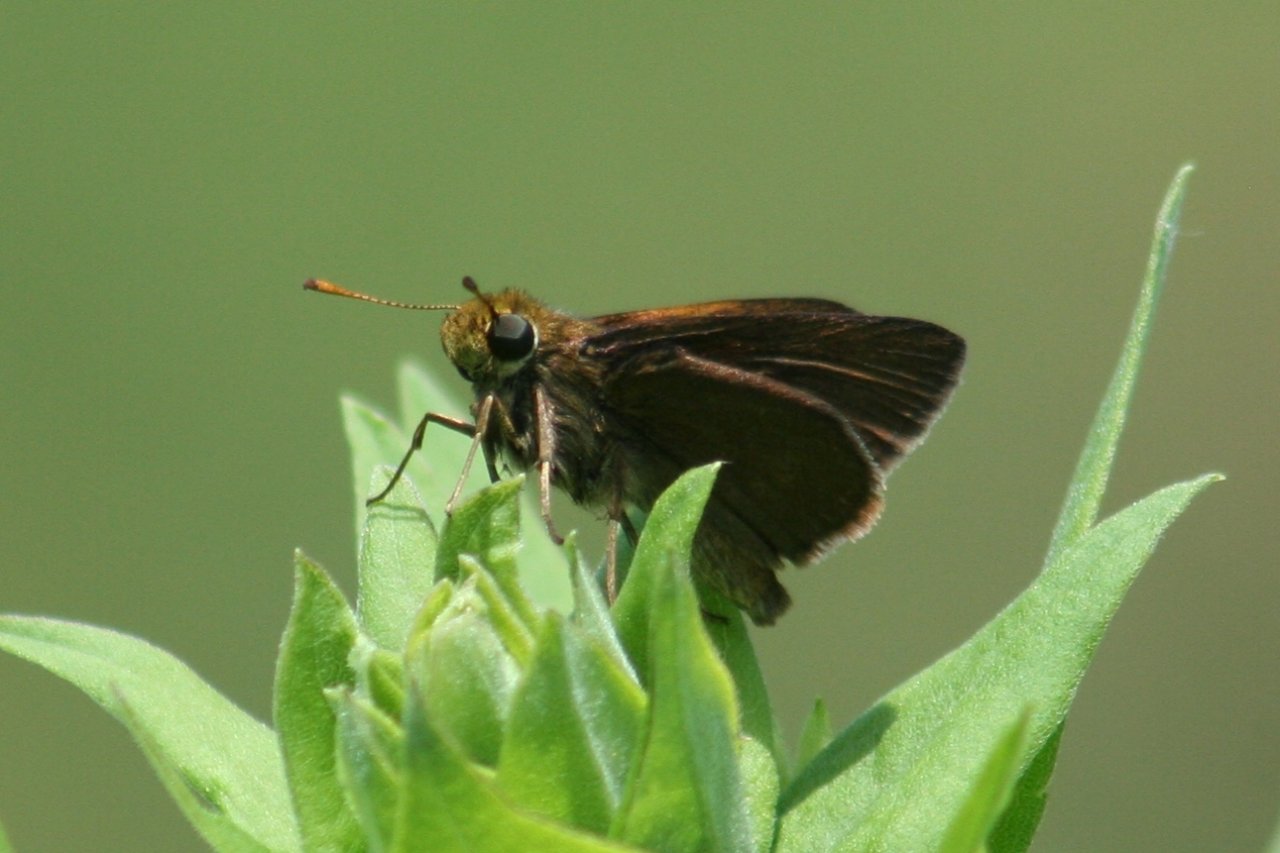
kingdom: Animalia
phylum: Arthropoda
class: Insecta
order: Lepidoptera
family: Hesperiidae
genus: Euphyes
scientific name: Euphyes vestris
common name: Dun Skipper
